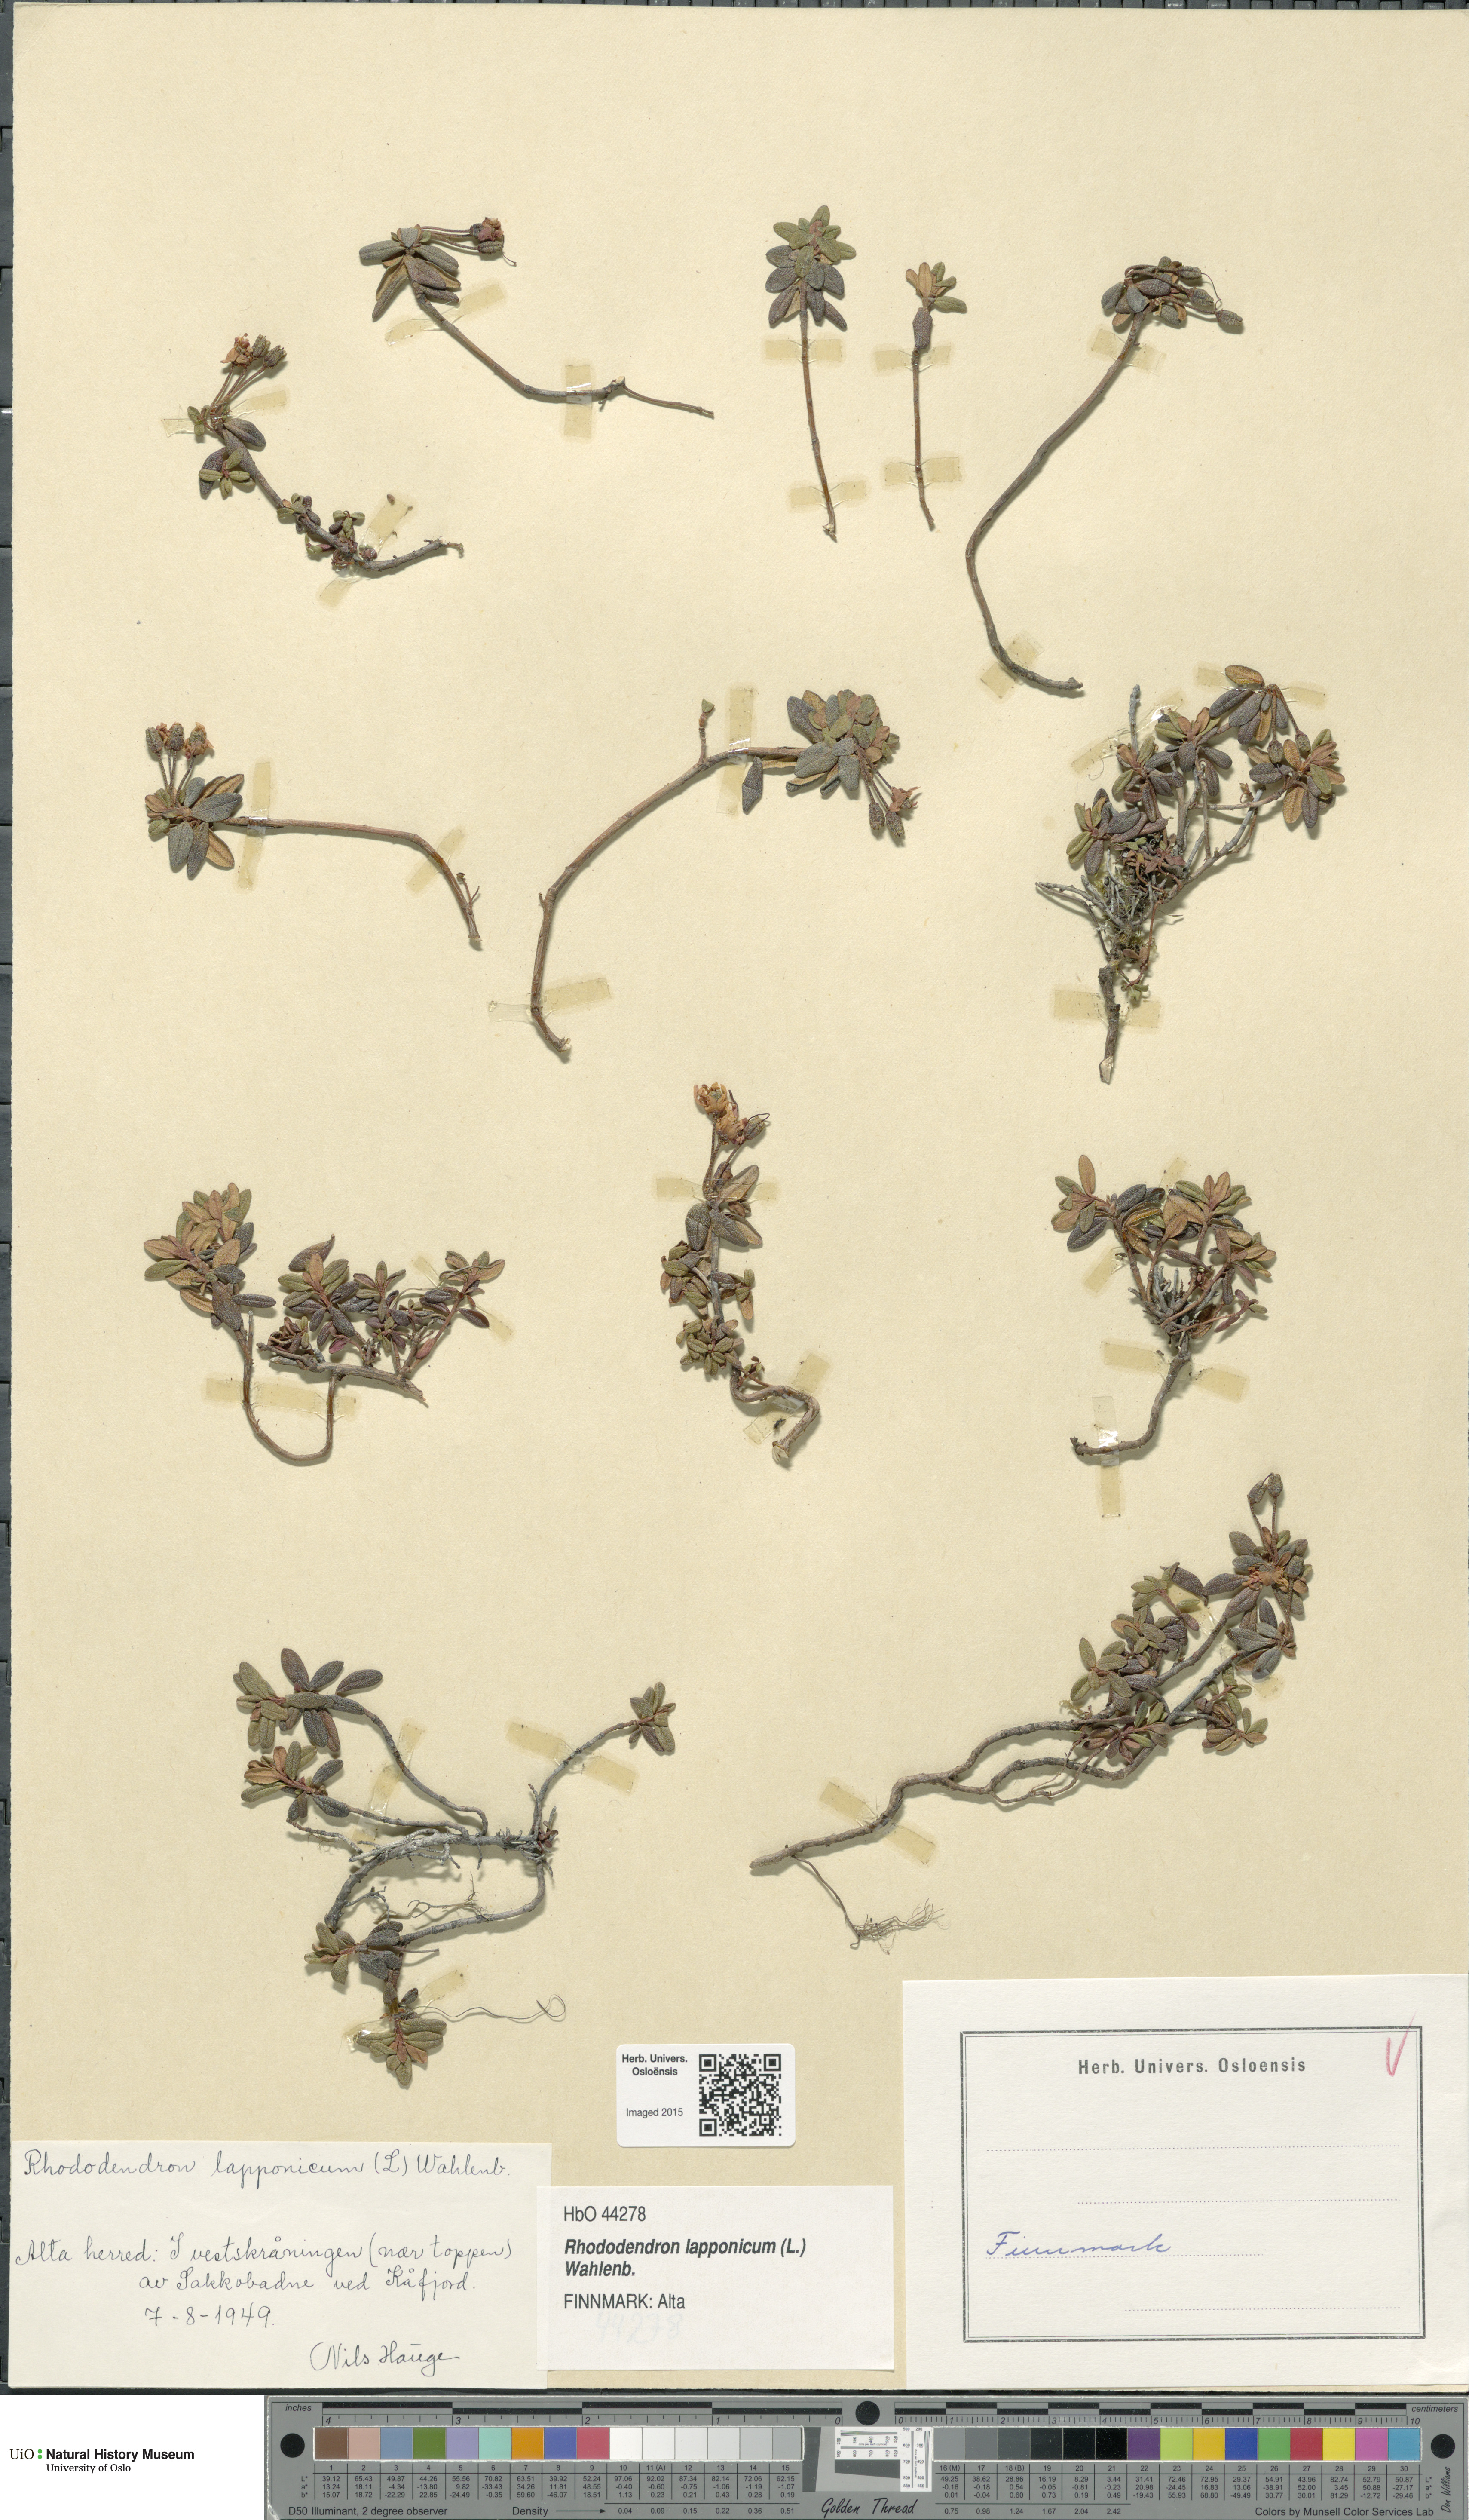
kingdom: Plantae
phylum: Tracheophyta
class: Magnoliopsida
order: Ericales
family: Ericaceae
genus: Rhododendron
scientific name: Rhododendron lapponicum
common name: Lapland rhododendron
